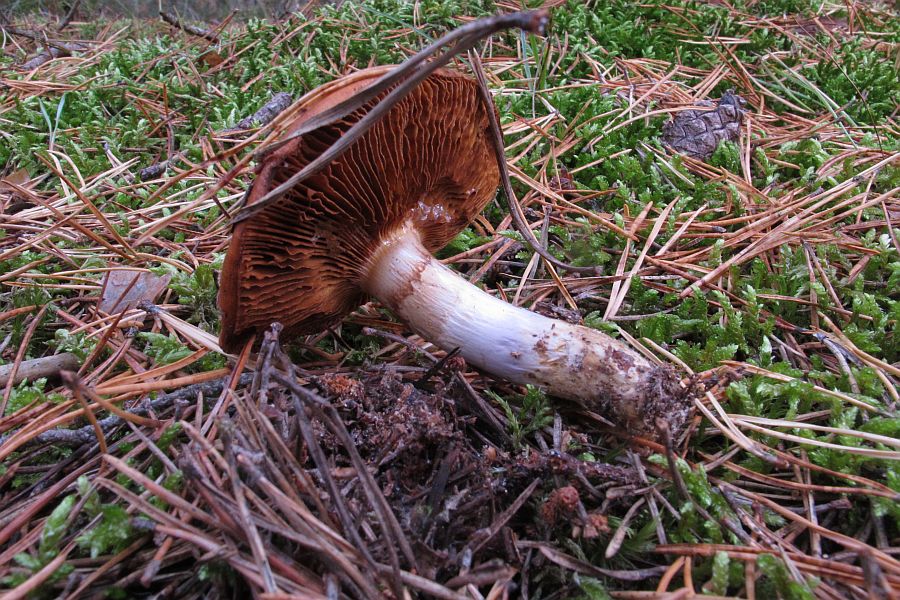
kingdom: Fungi
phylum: Basidiomycota
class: Agaricomycetes
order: Agaricales
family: Cortinariaceae
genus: Cortinarius
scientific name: Cortinarius mucosus
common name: kastaniebrun slørhat
